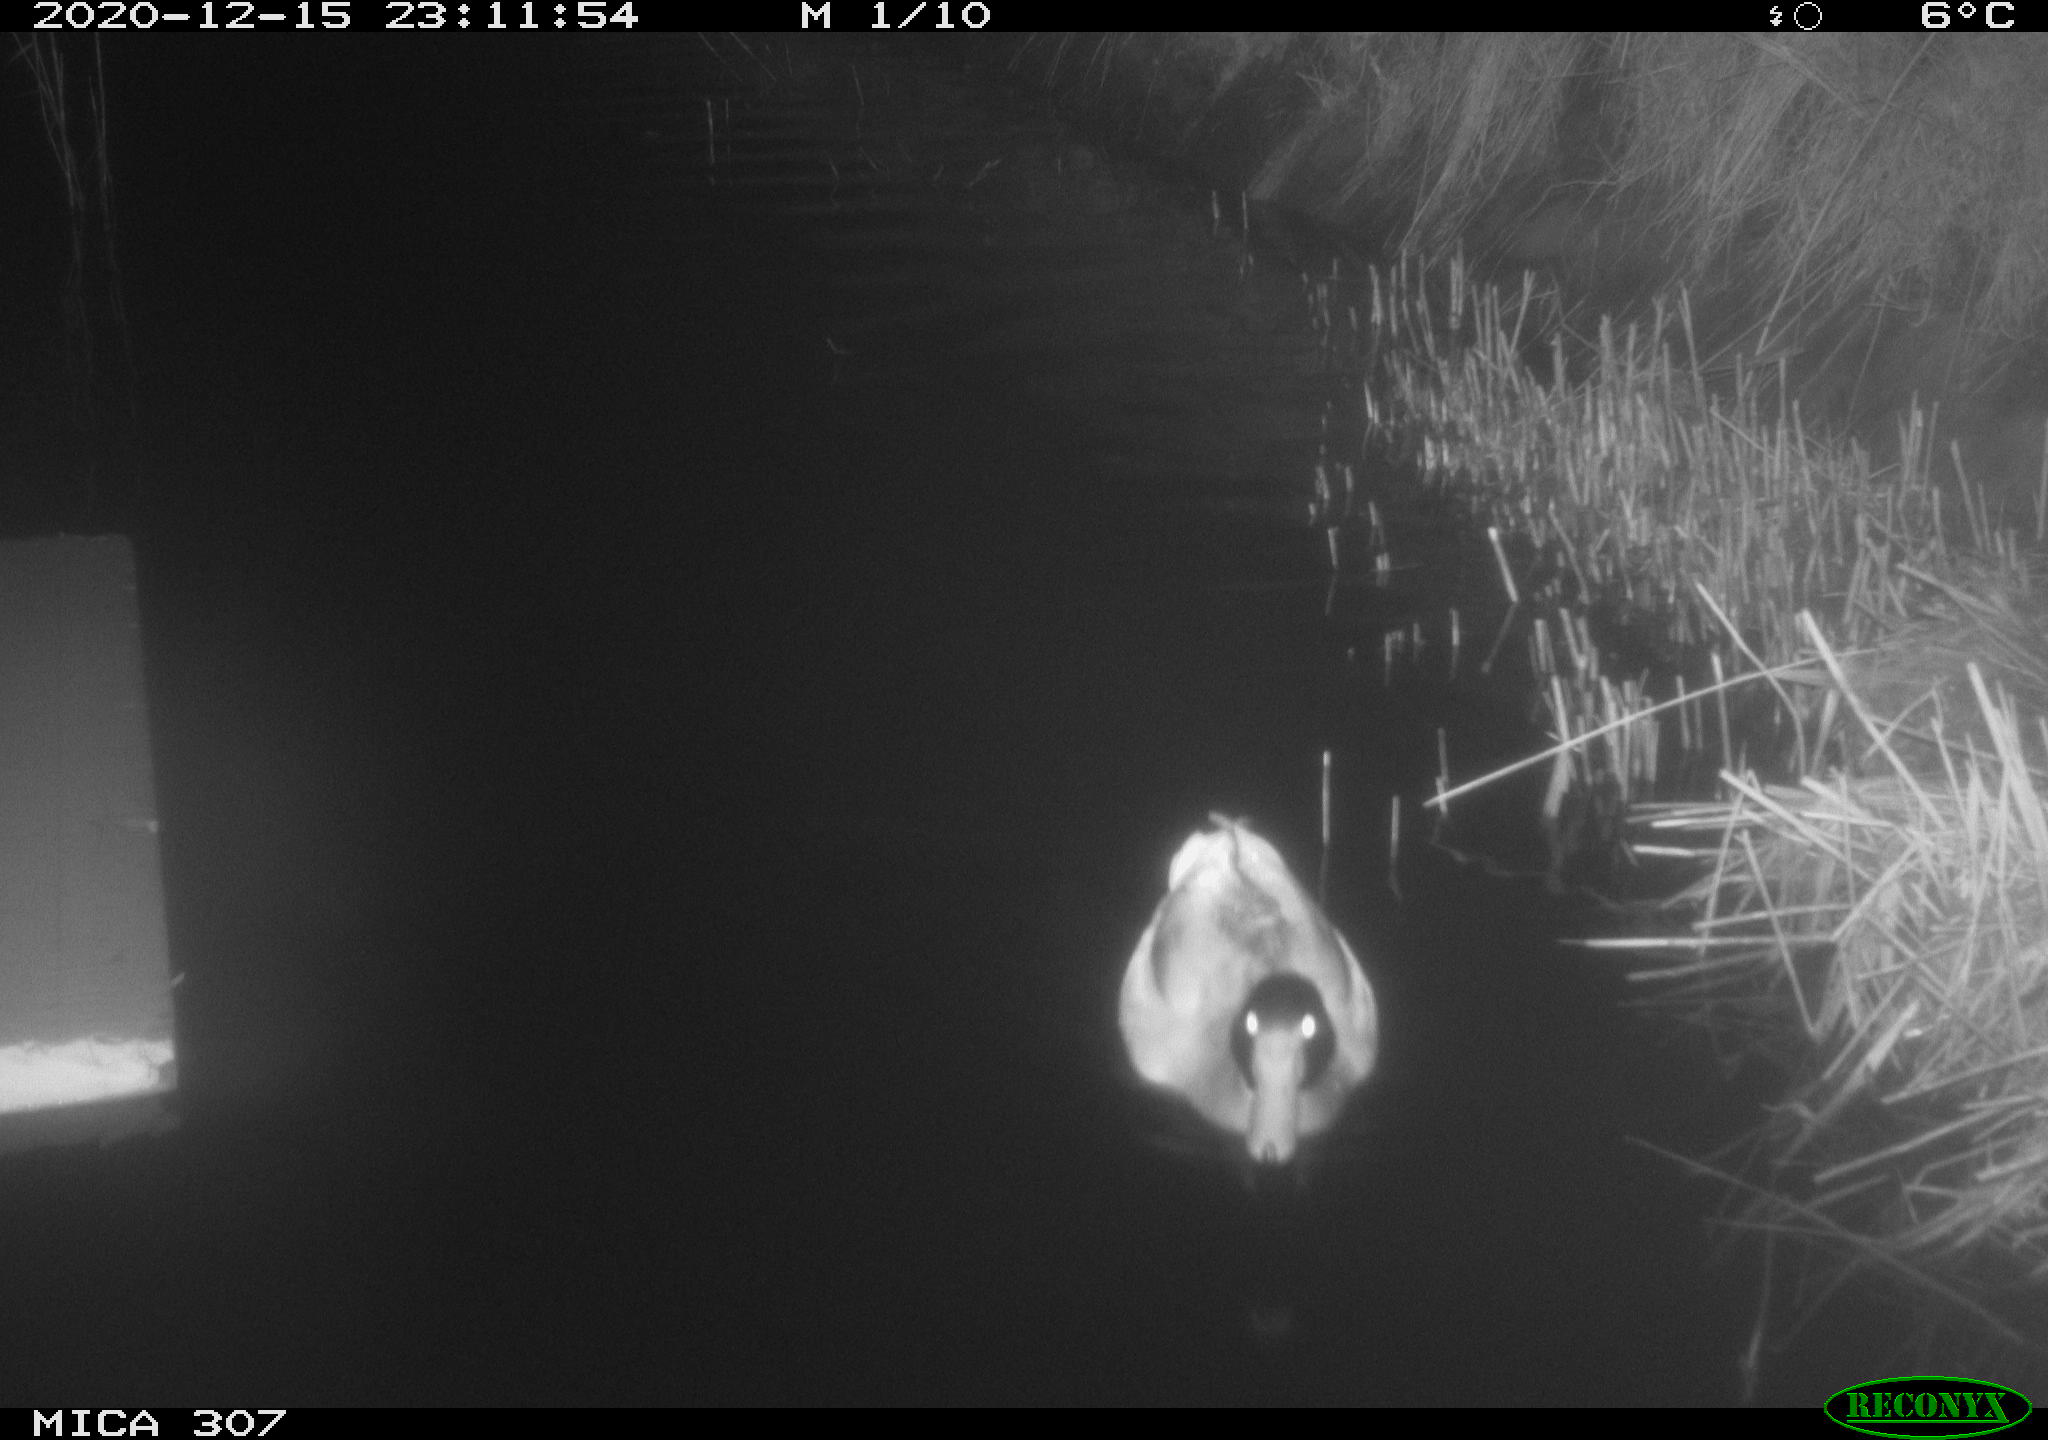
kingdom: Animalia
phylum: Chordata
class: Aves
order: Anseriformes
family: Anatidae
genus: Anas
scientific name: Anas platyrhynchos
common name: Mallard
